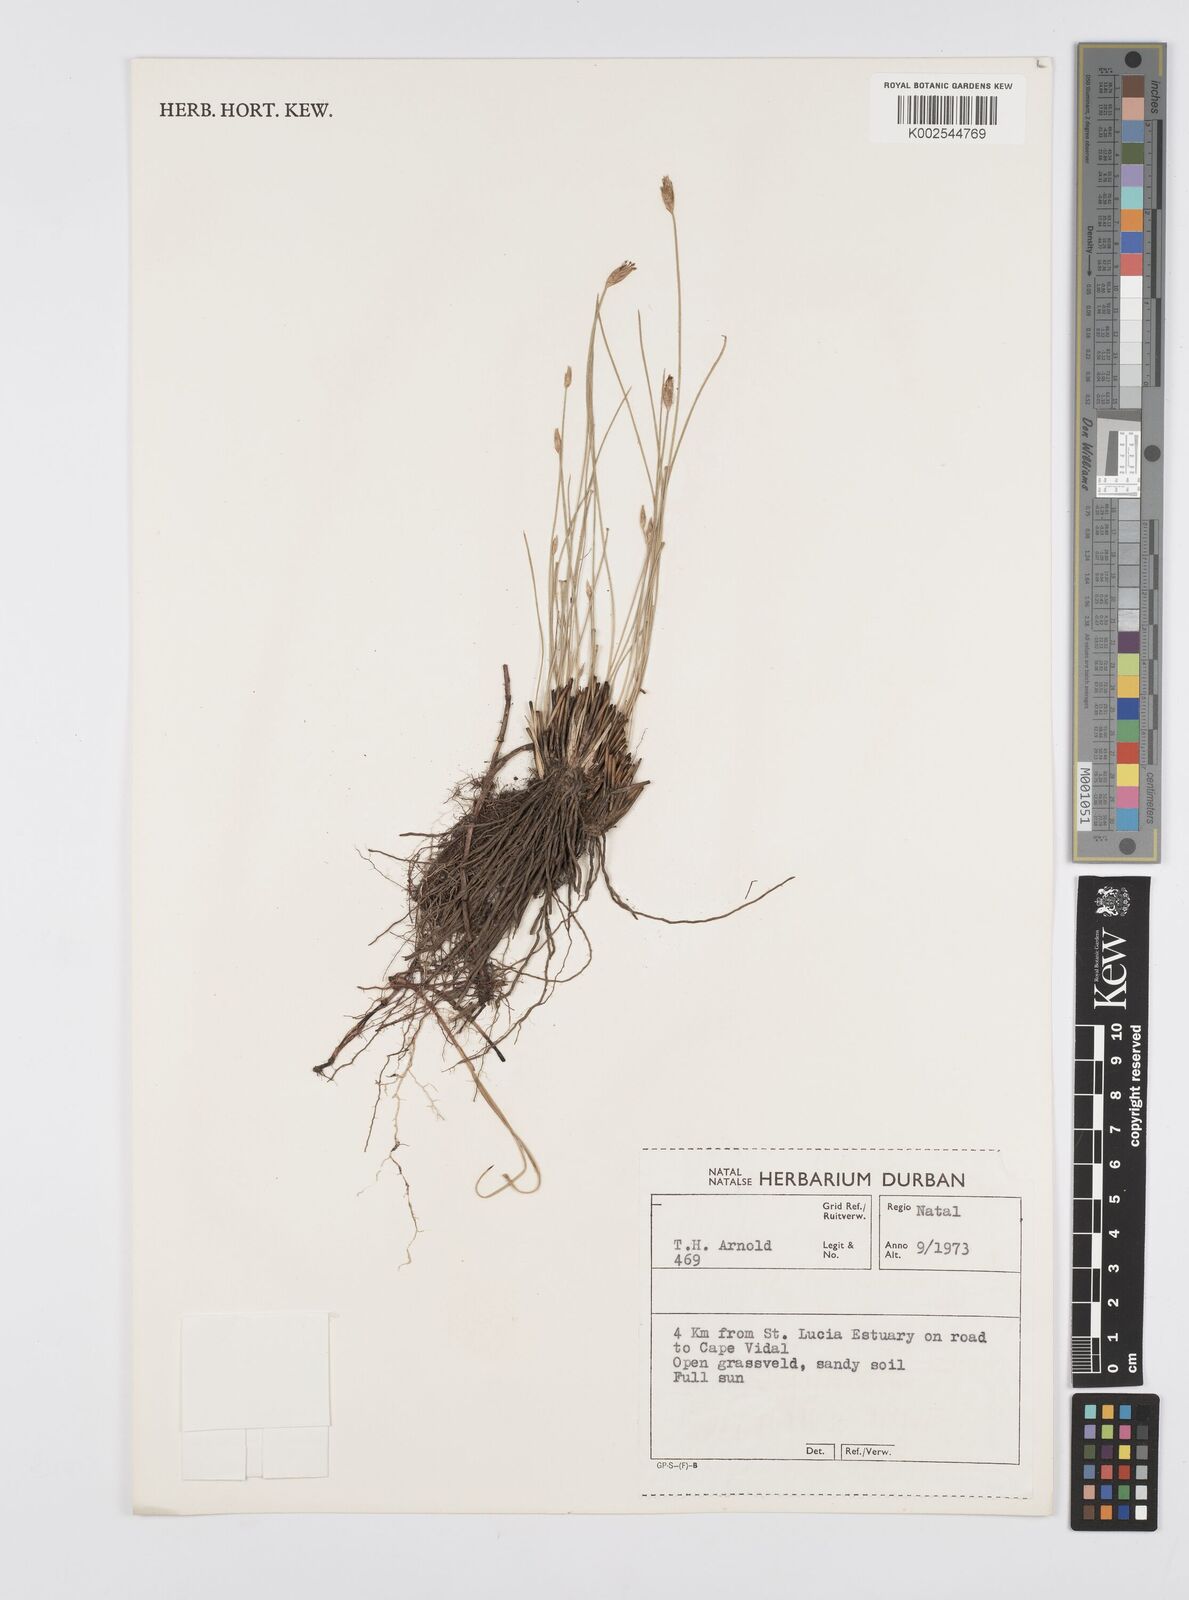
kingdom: Plantae
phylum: Tracheophyta
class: Liliopsida
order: Poales
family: Cyperaceae
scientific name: Cyperaceae
